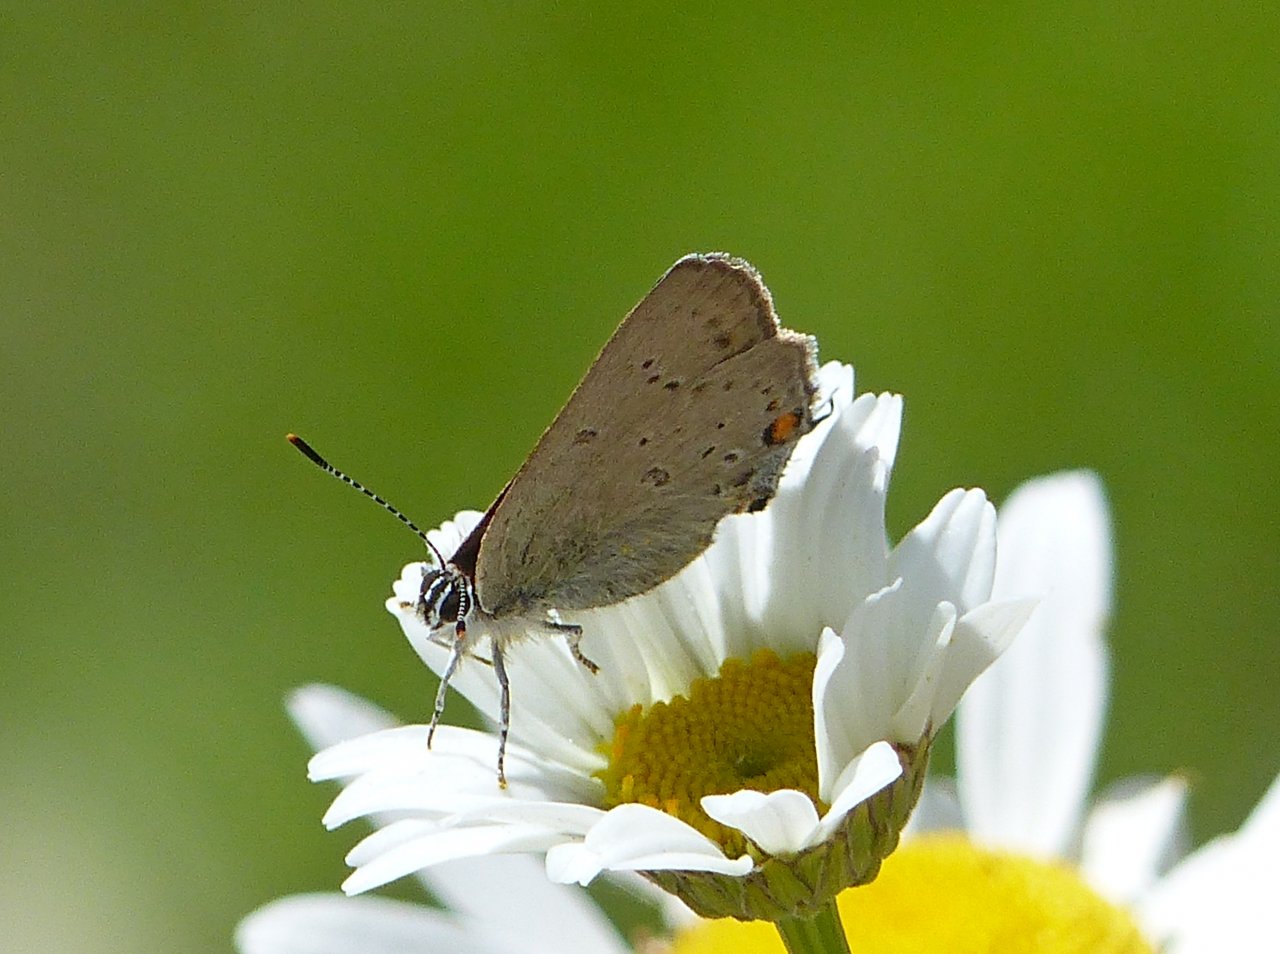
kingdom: Animalia
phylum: Arthropoda
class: Insecta
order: Lepidoptera
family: Lycaenidae
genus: Strymon
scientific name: Strymon sylvinus
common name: Sylvan Hairstreak
